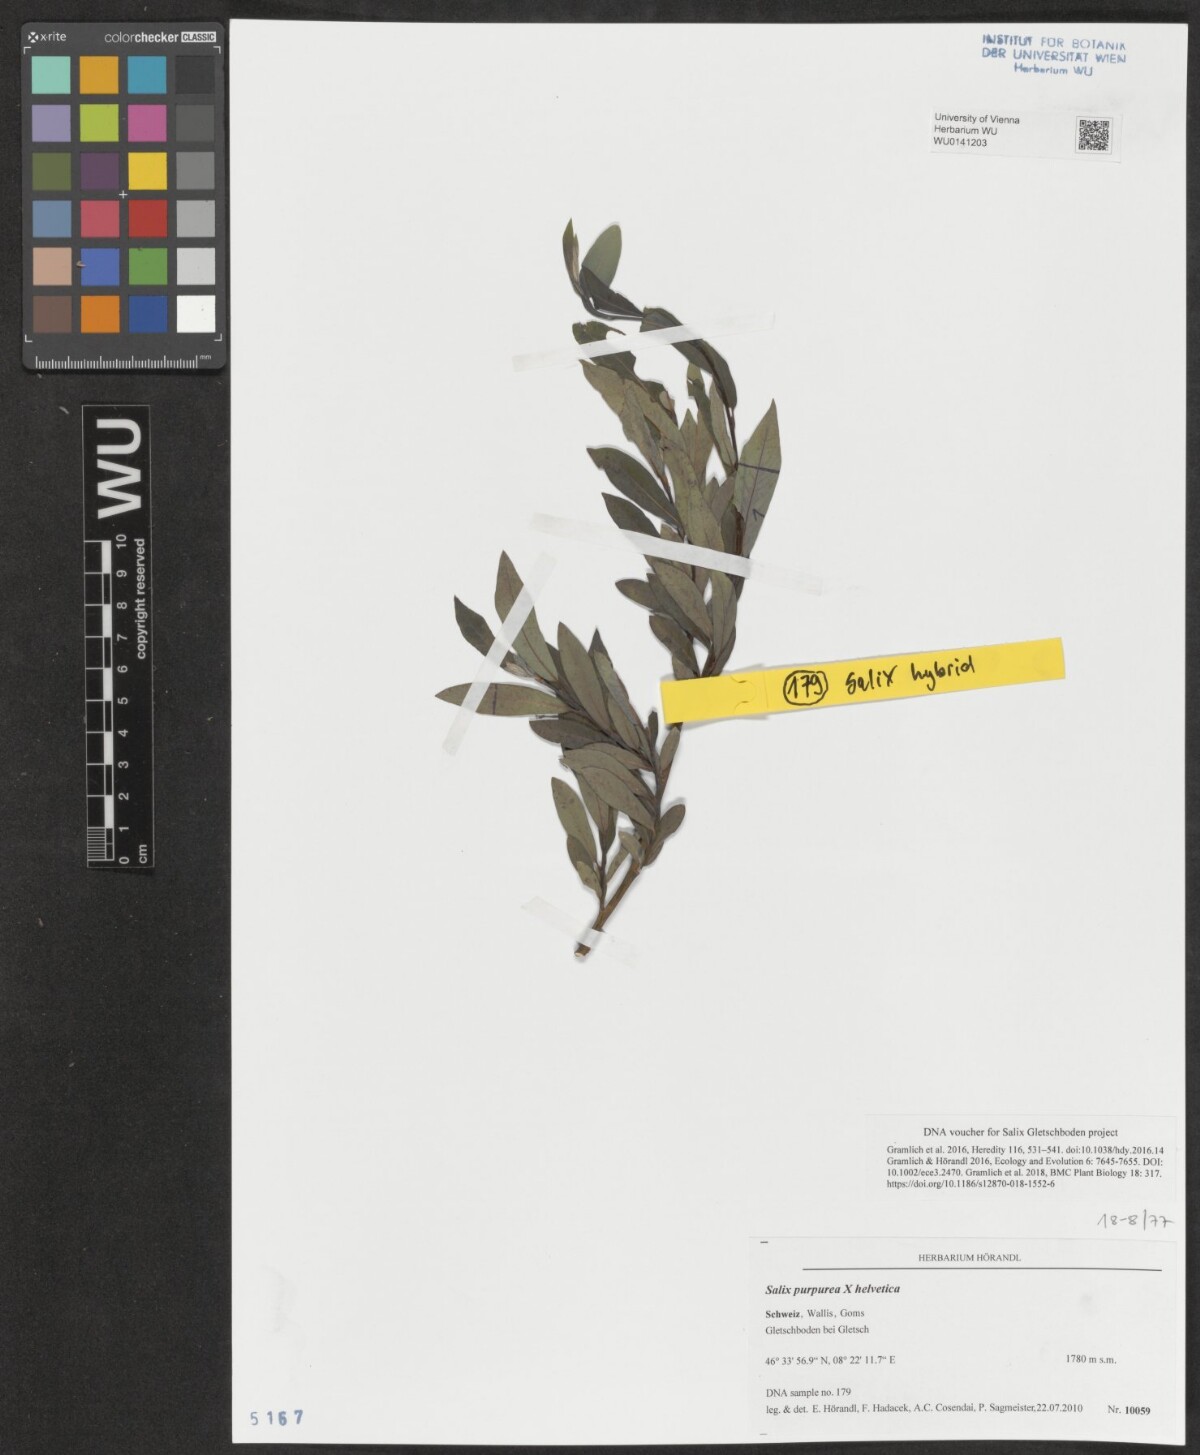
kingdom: Plantae
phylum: Tracheophyta
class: Magnoliopsida
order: Malpighiales
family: Salicaceae
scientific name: Salicaceae
